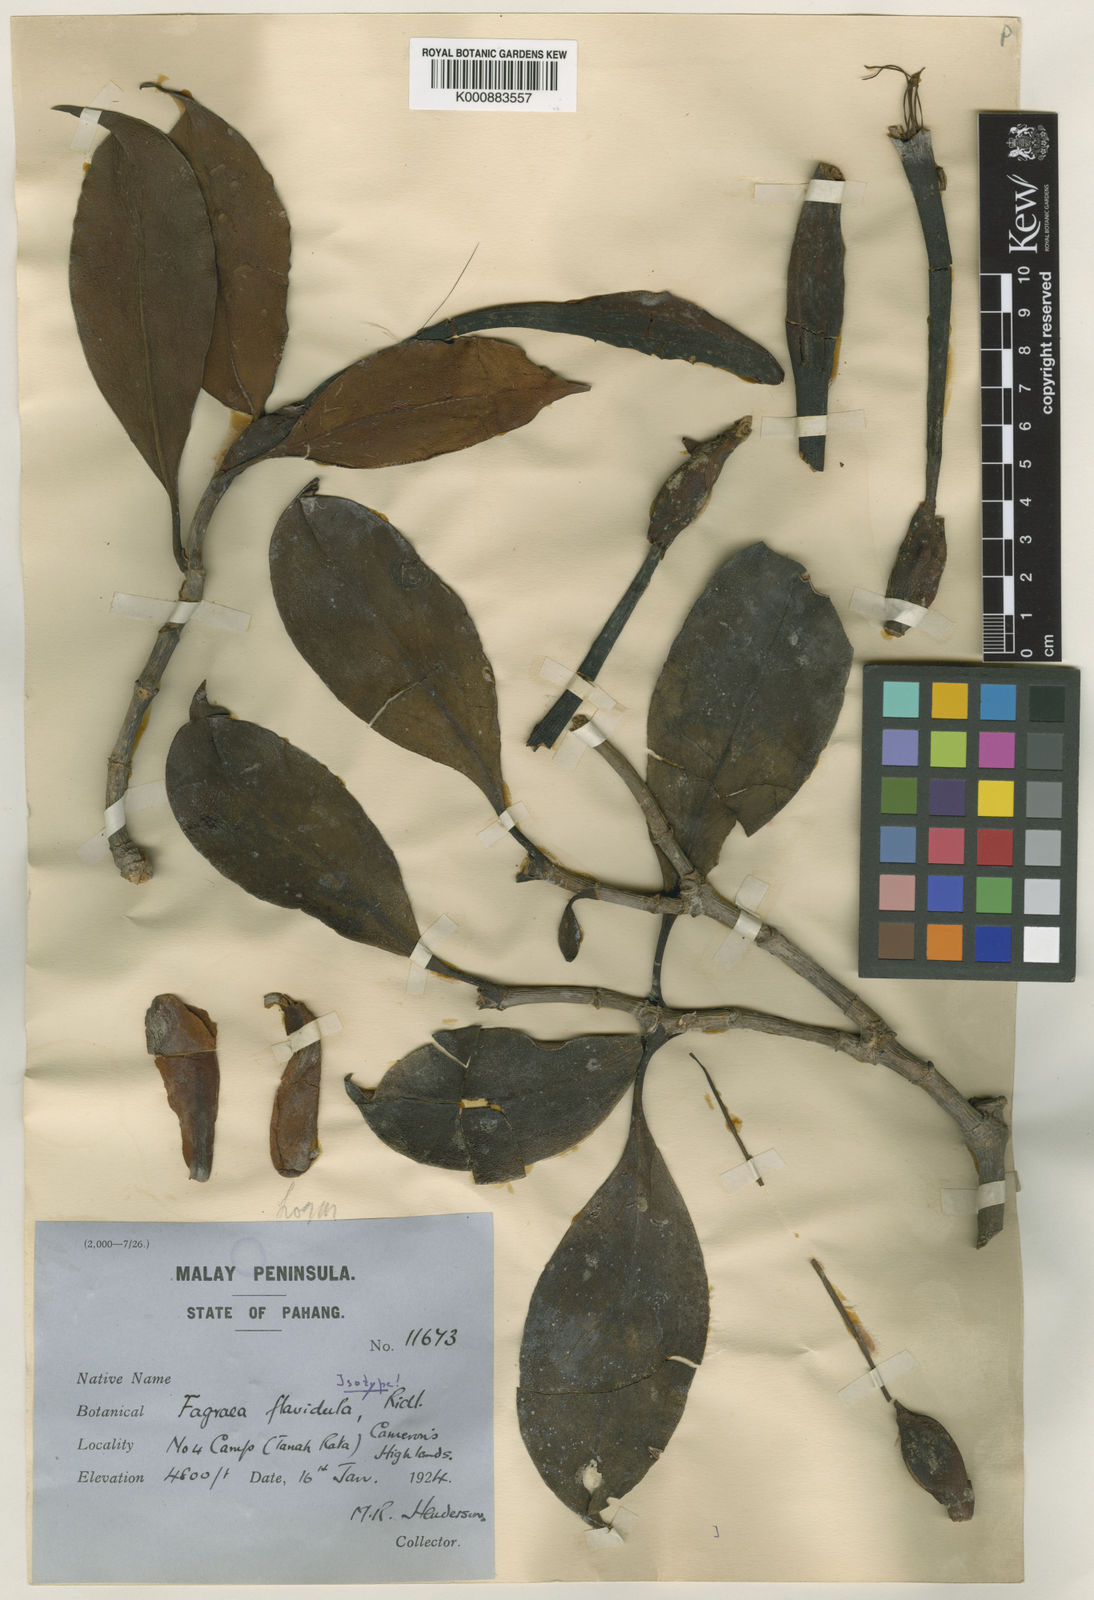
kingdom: Plantae
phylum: Tracheophyta
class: Magnoliopsida
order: Gentianales
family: Gentianaceae
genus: Fagraea
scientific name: Fagraea carnosa
